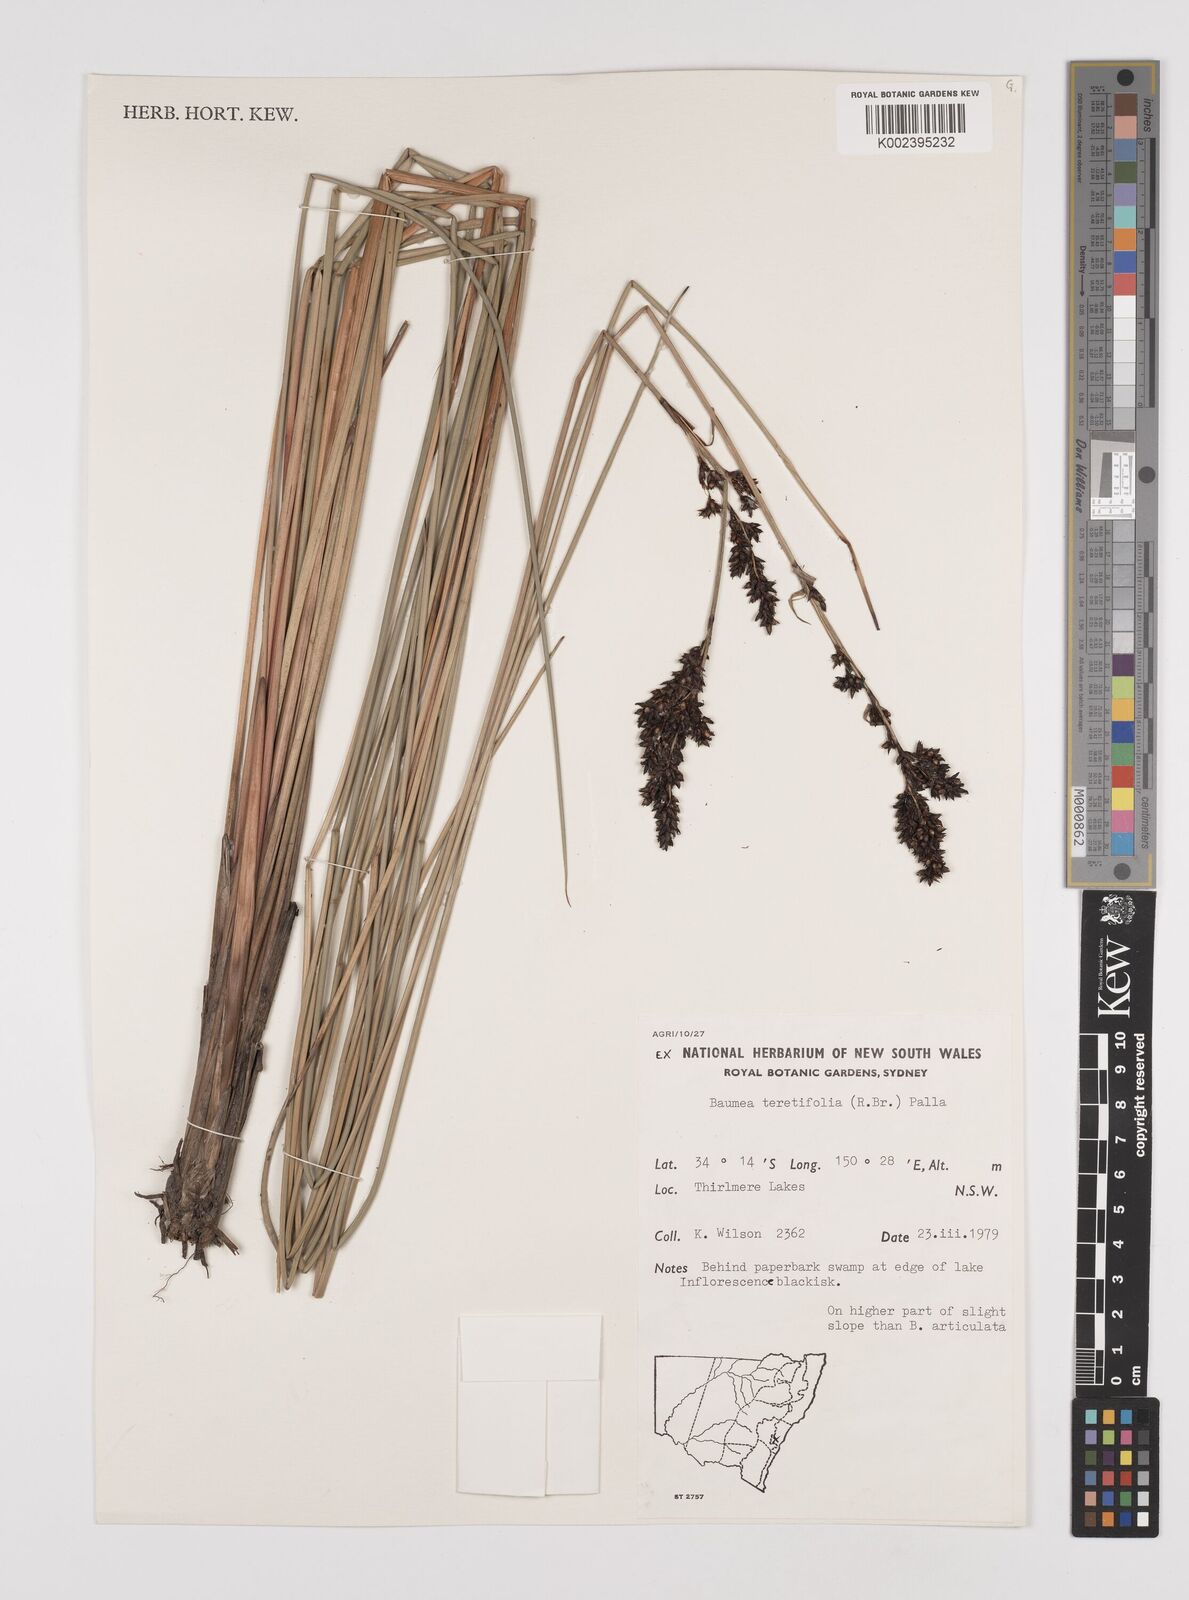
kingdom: Plantae
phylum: Tracheophyta
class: Liliopsida
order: Poales
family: Cyperaceae
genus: Machaerina
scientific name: Machaerina teretifolia
